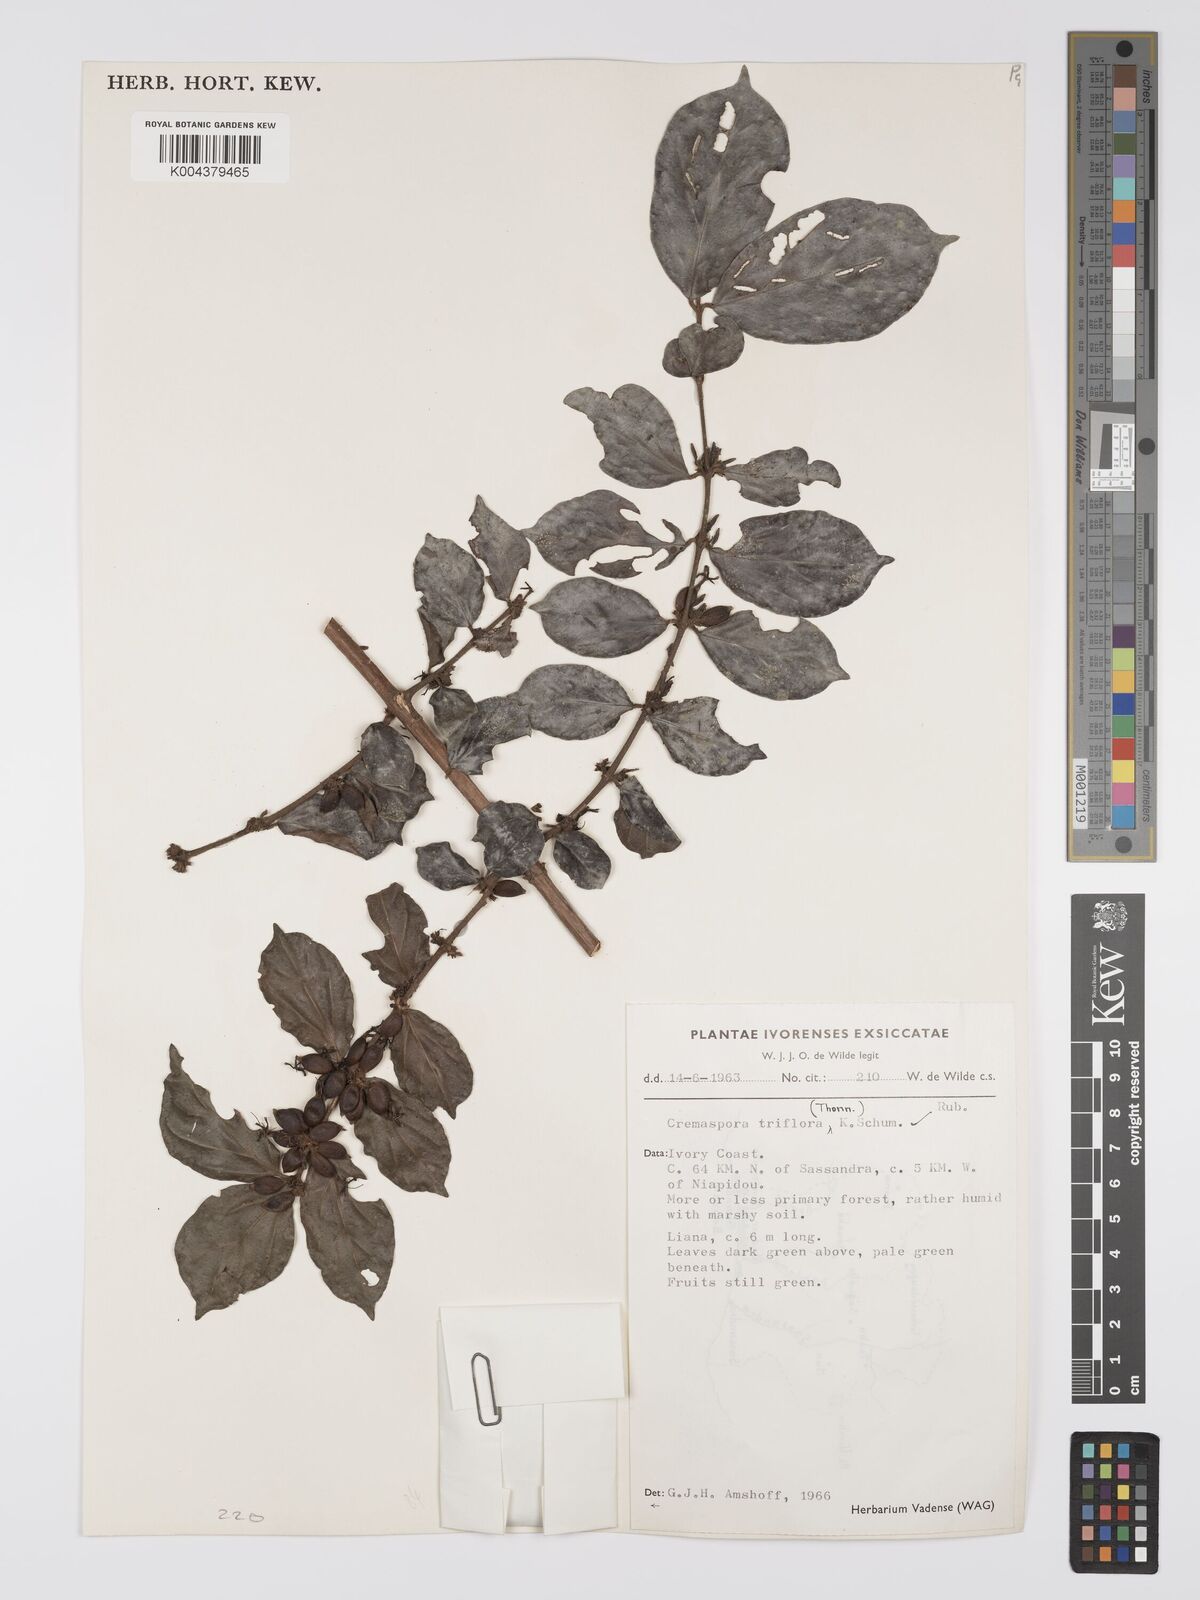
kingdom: Plantae
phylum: Tracheophyta
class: Magnoliopsida
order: Gentianales
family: Rubiaceae
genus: Cremaspora
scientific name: Cremaspora triflora
